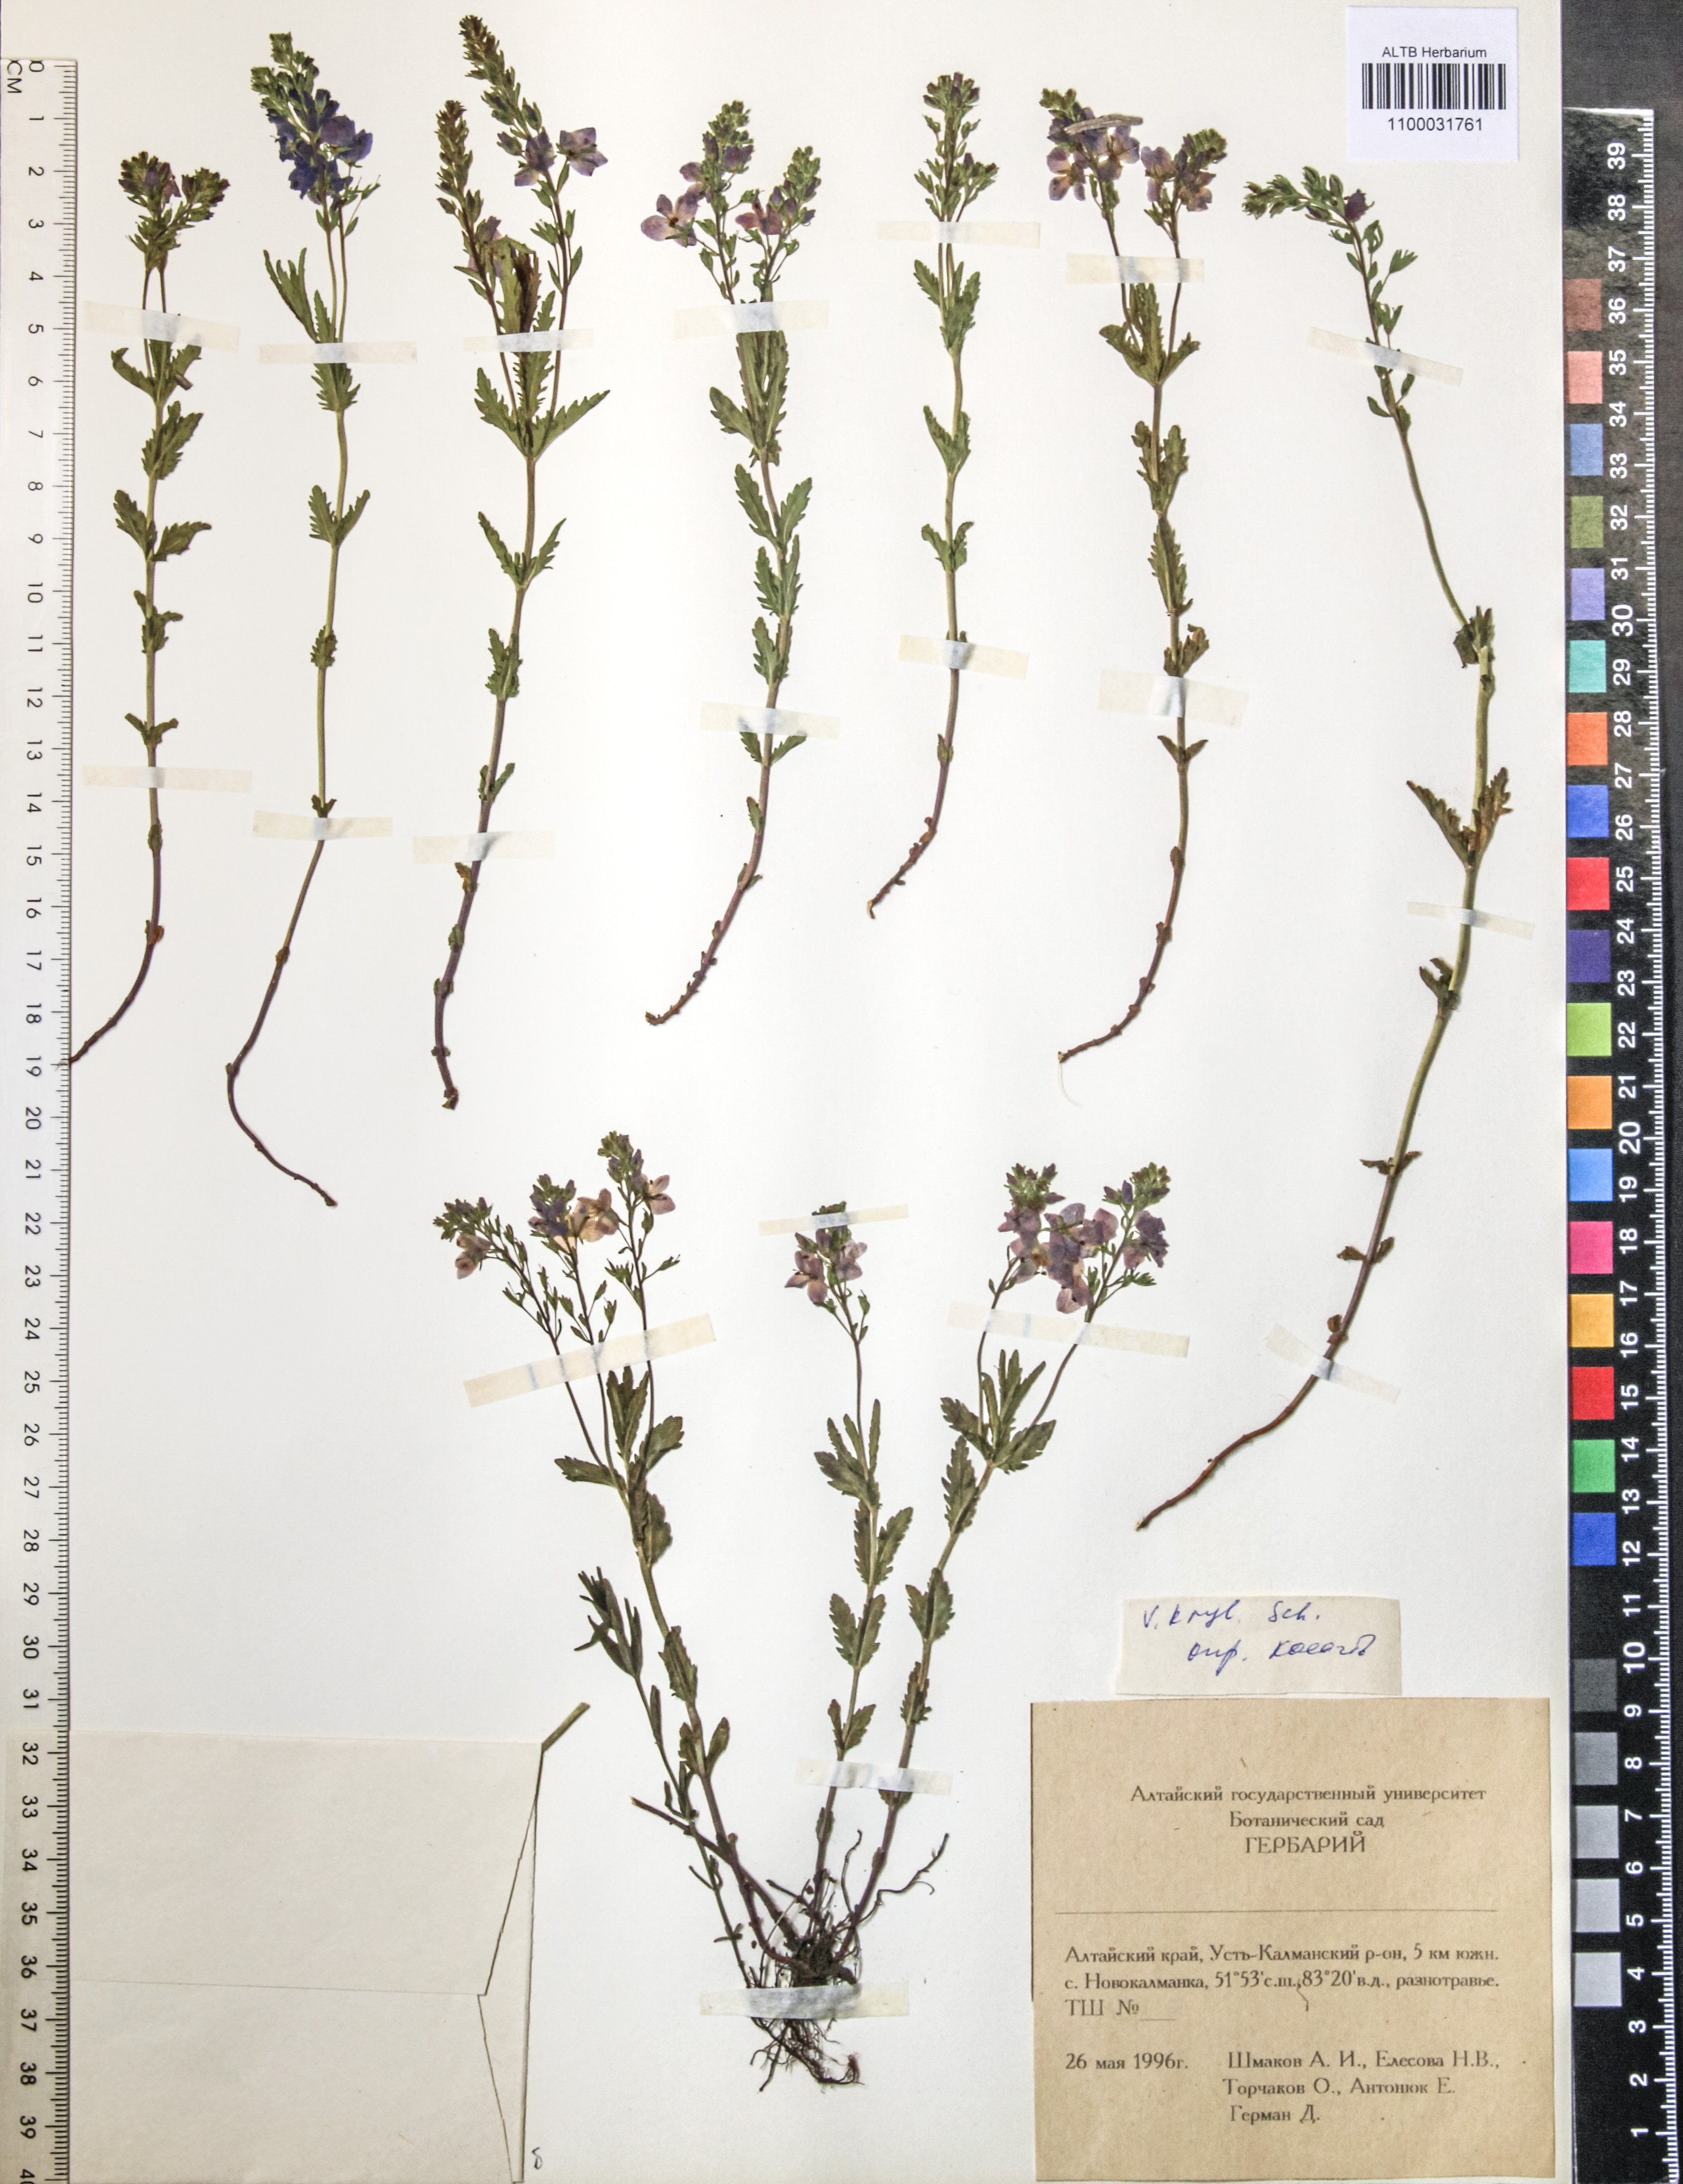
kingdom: Plantae
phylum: Tracheophyta
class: Magnoliopsida
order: Lamiales
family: Plantaginaceae
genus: Veronica
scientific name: Veronica krylovii
